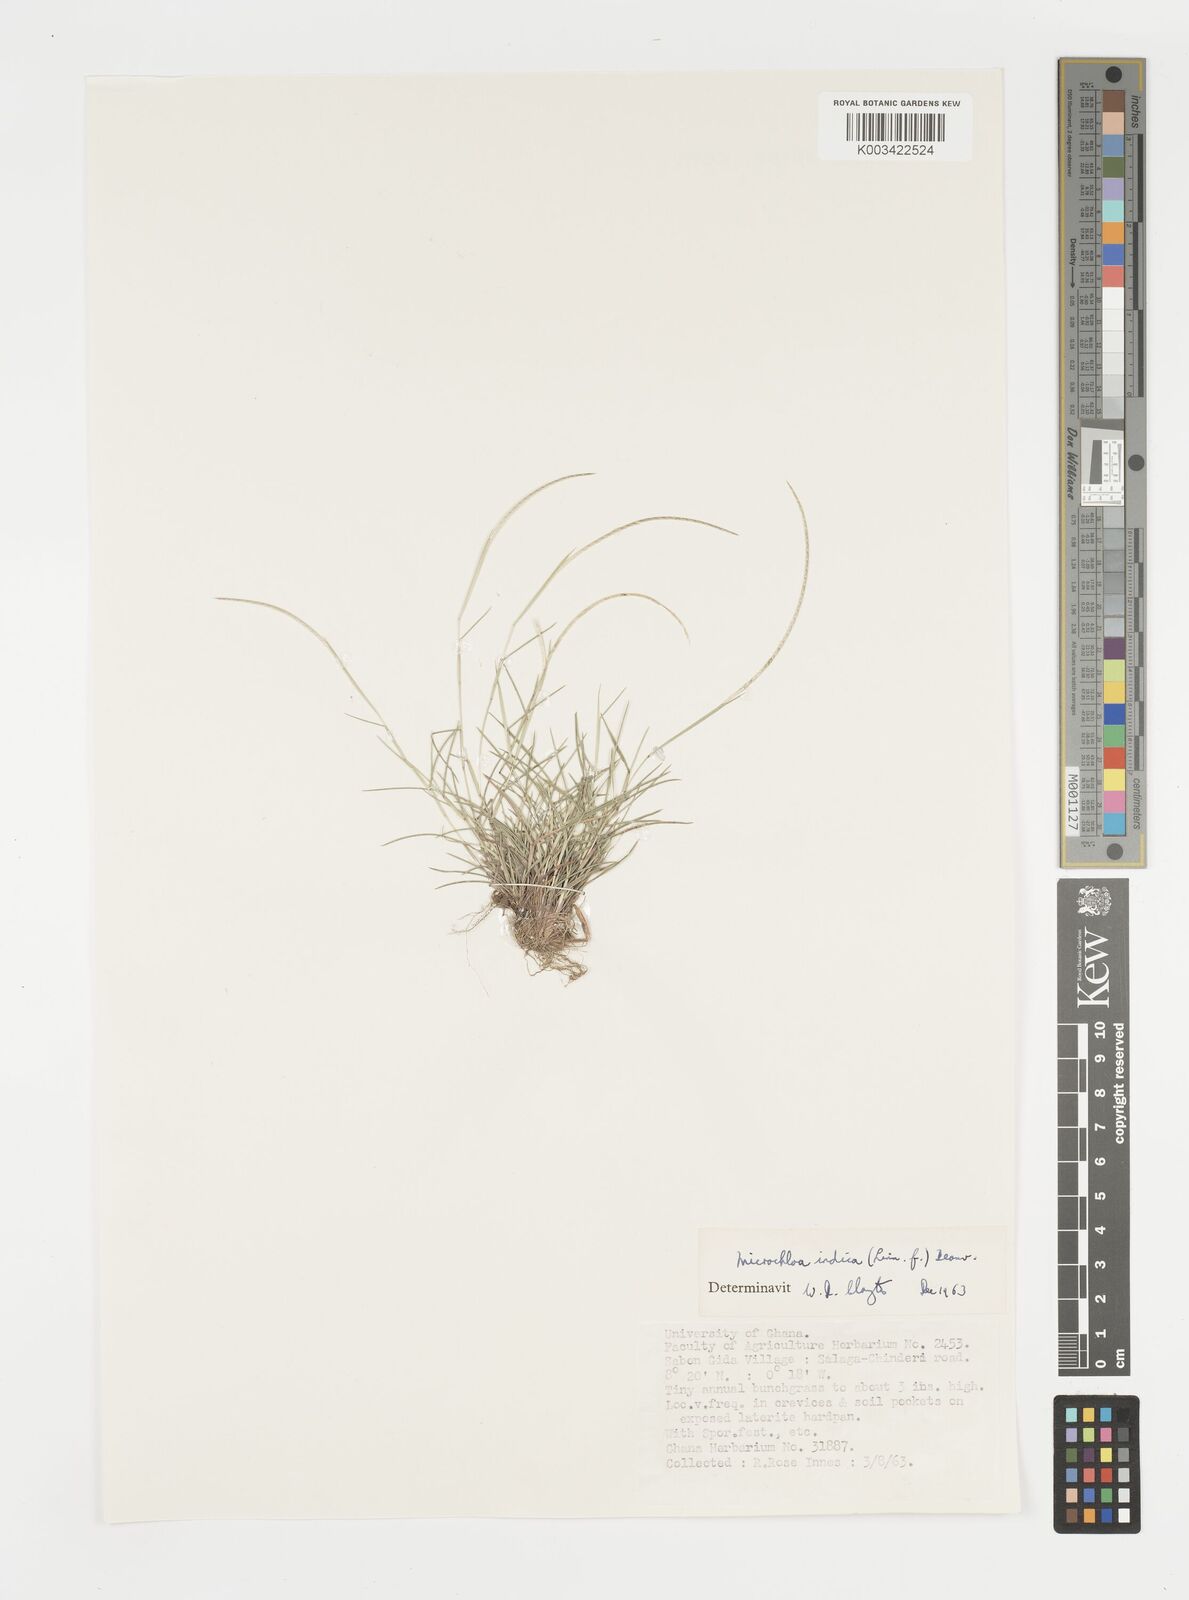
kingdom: Plantae
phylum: Tracheophyta
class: Liliopsida
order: Poales
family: Poaceae
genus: Microchloa
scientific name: Microchloa indica
